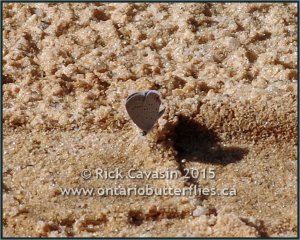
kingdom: Animalia
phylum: Arthropoda
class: Insecta
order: Lepidoptera
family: Lycaenidae
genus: Elkalyce
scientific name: Elkalyce comyntas
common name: Eastern Tailed-Blue
